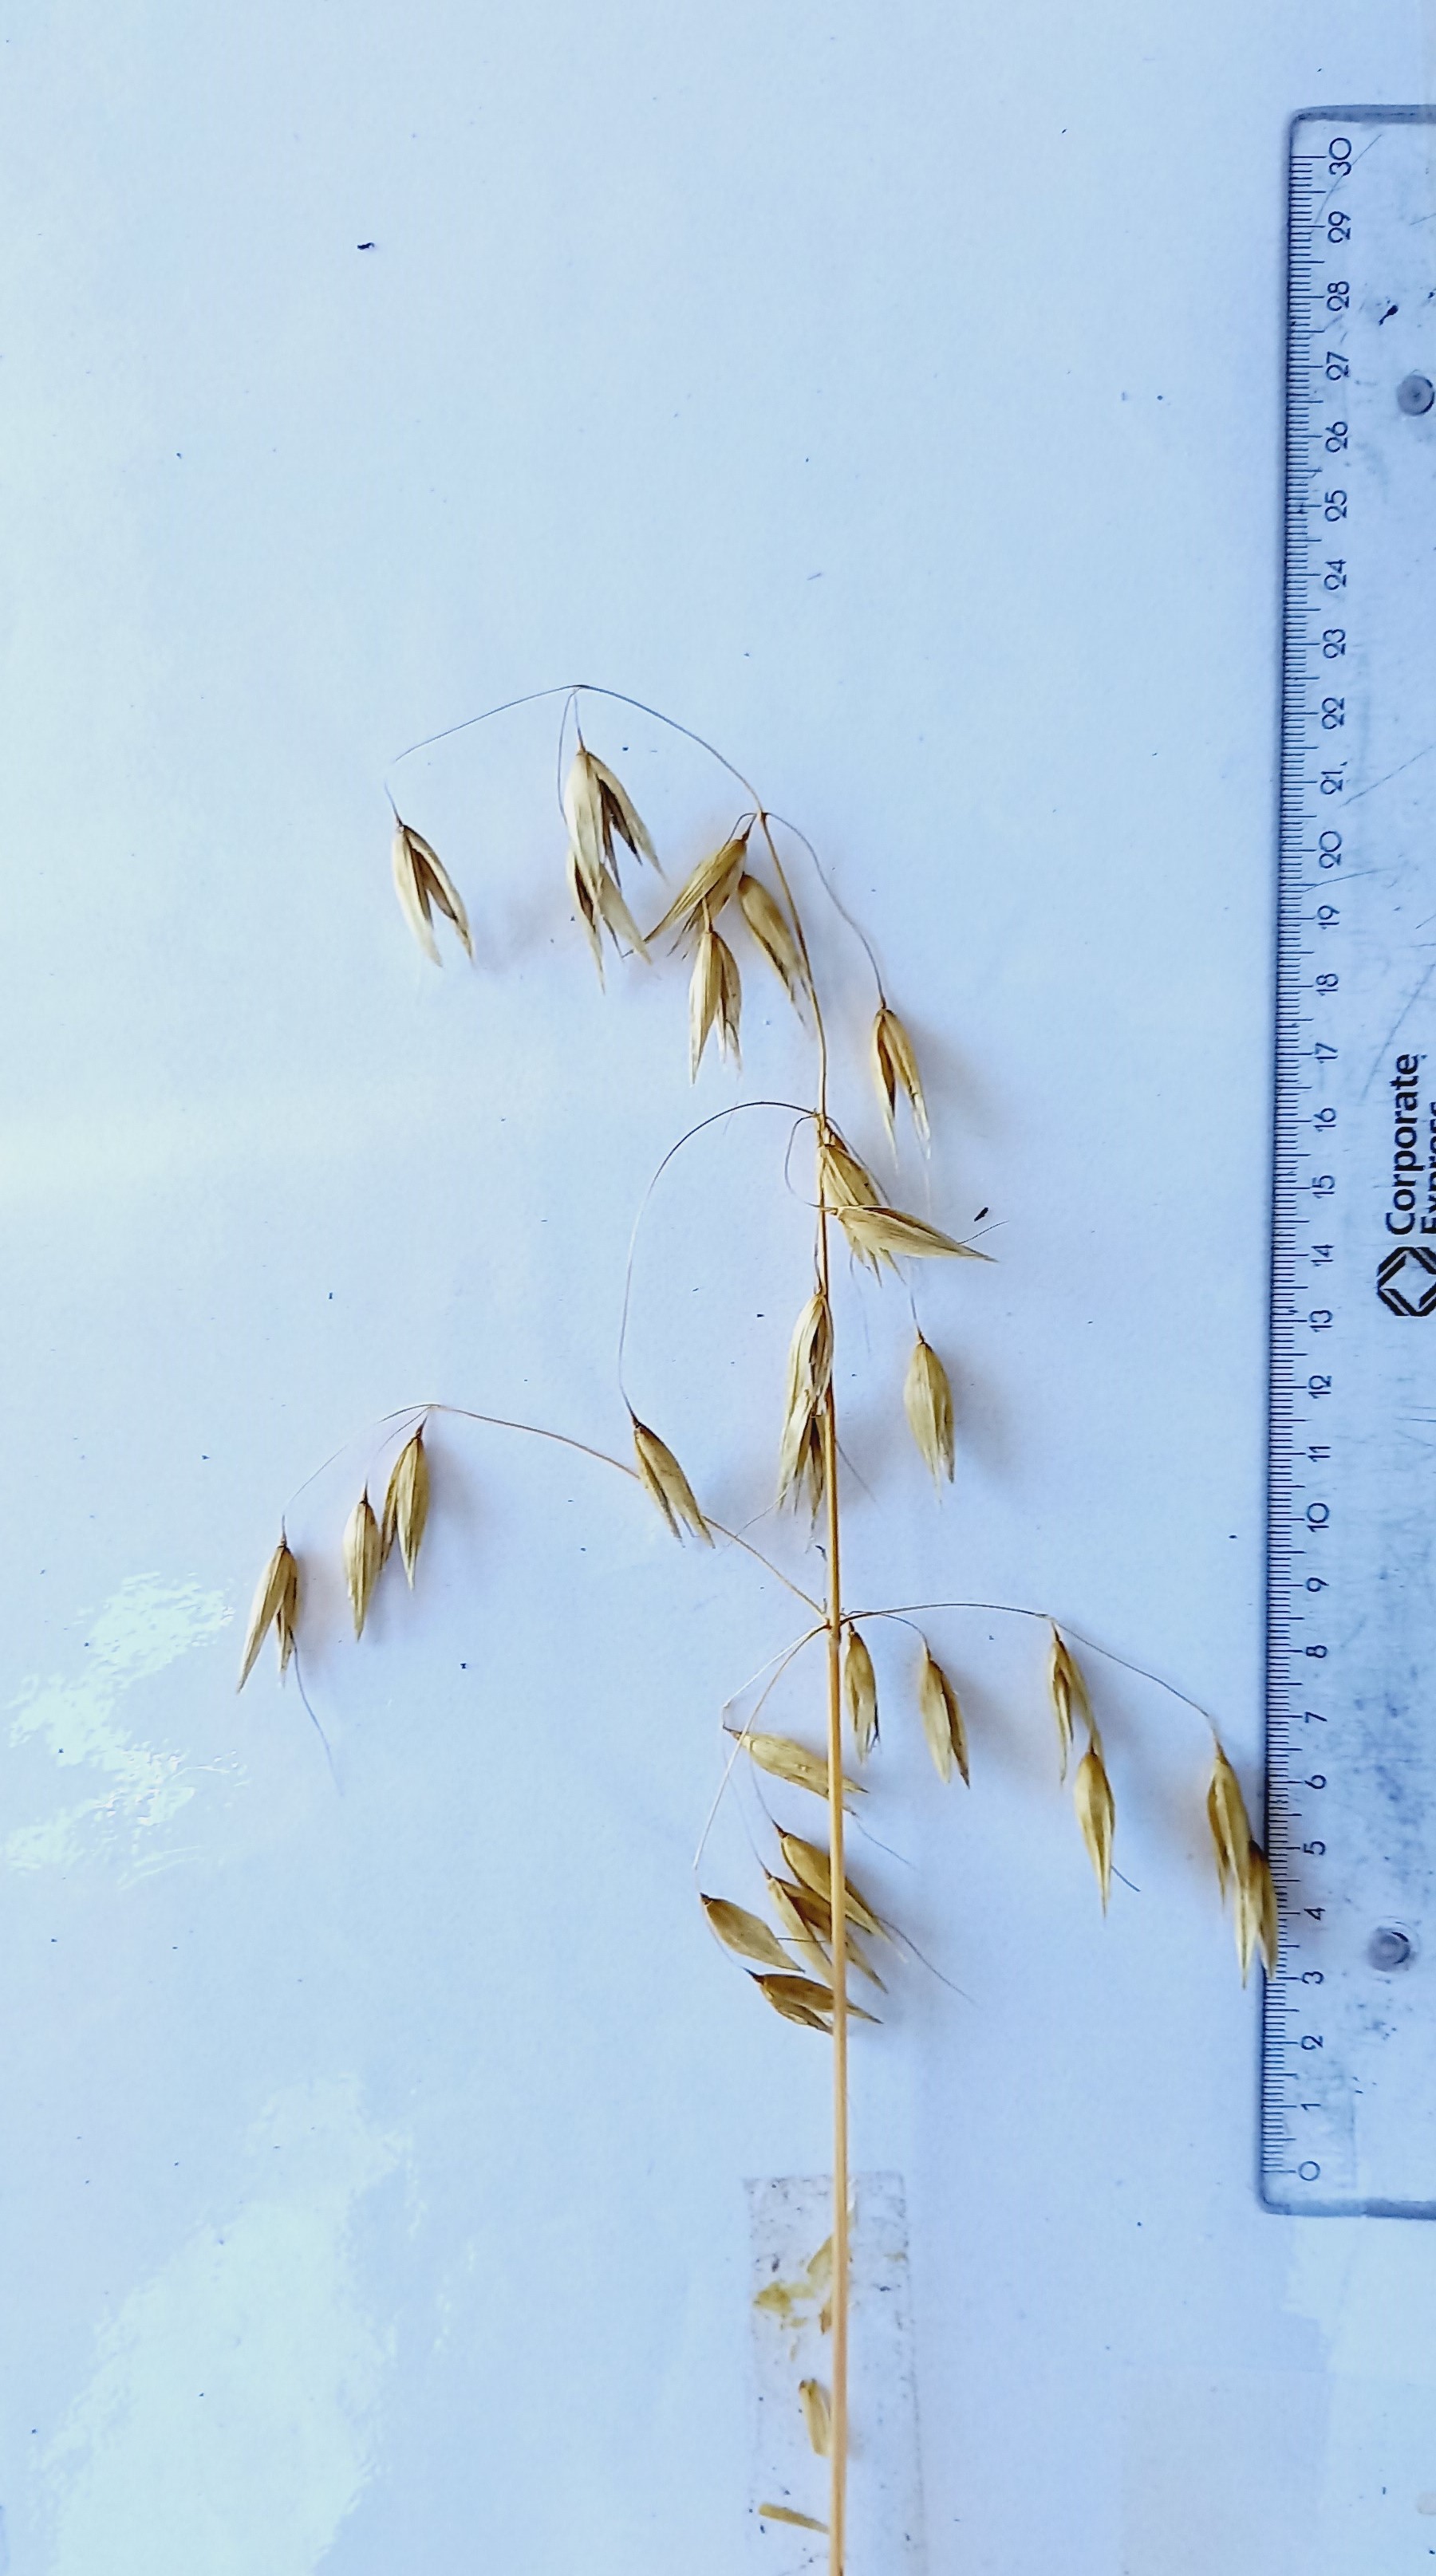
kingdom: Plantae
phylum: Tracheophyta
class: Liliopsida
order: Poales
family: Poaceae
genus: Avena
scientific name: Avena sativa
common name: Oat
